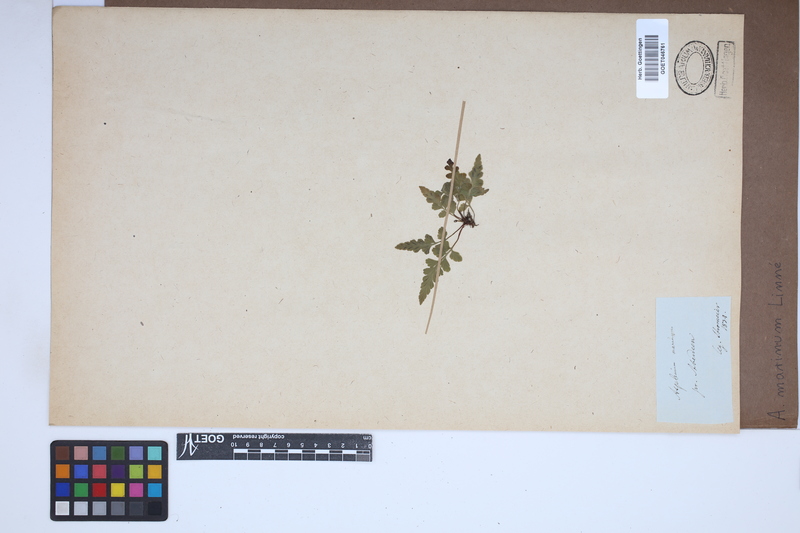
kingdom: Plantae
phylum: Tracheophyta
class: Polypodiopsida
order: Polypodiales
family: Aspleniaceae
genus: Asplenium
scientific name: Asplenium marinum
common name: Sea spleenwort
